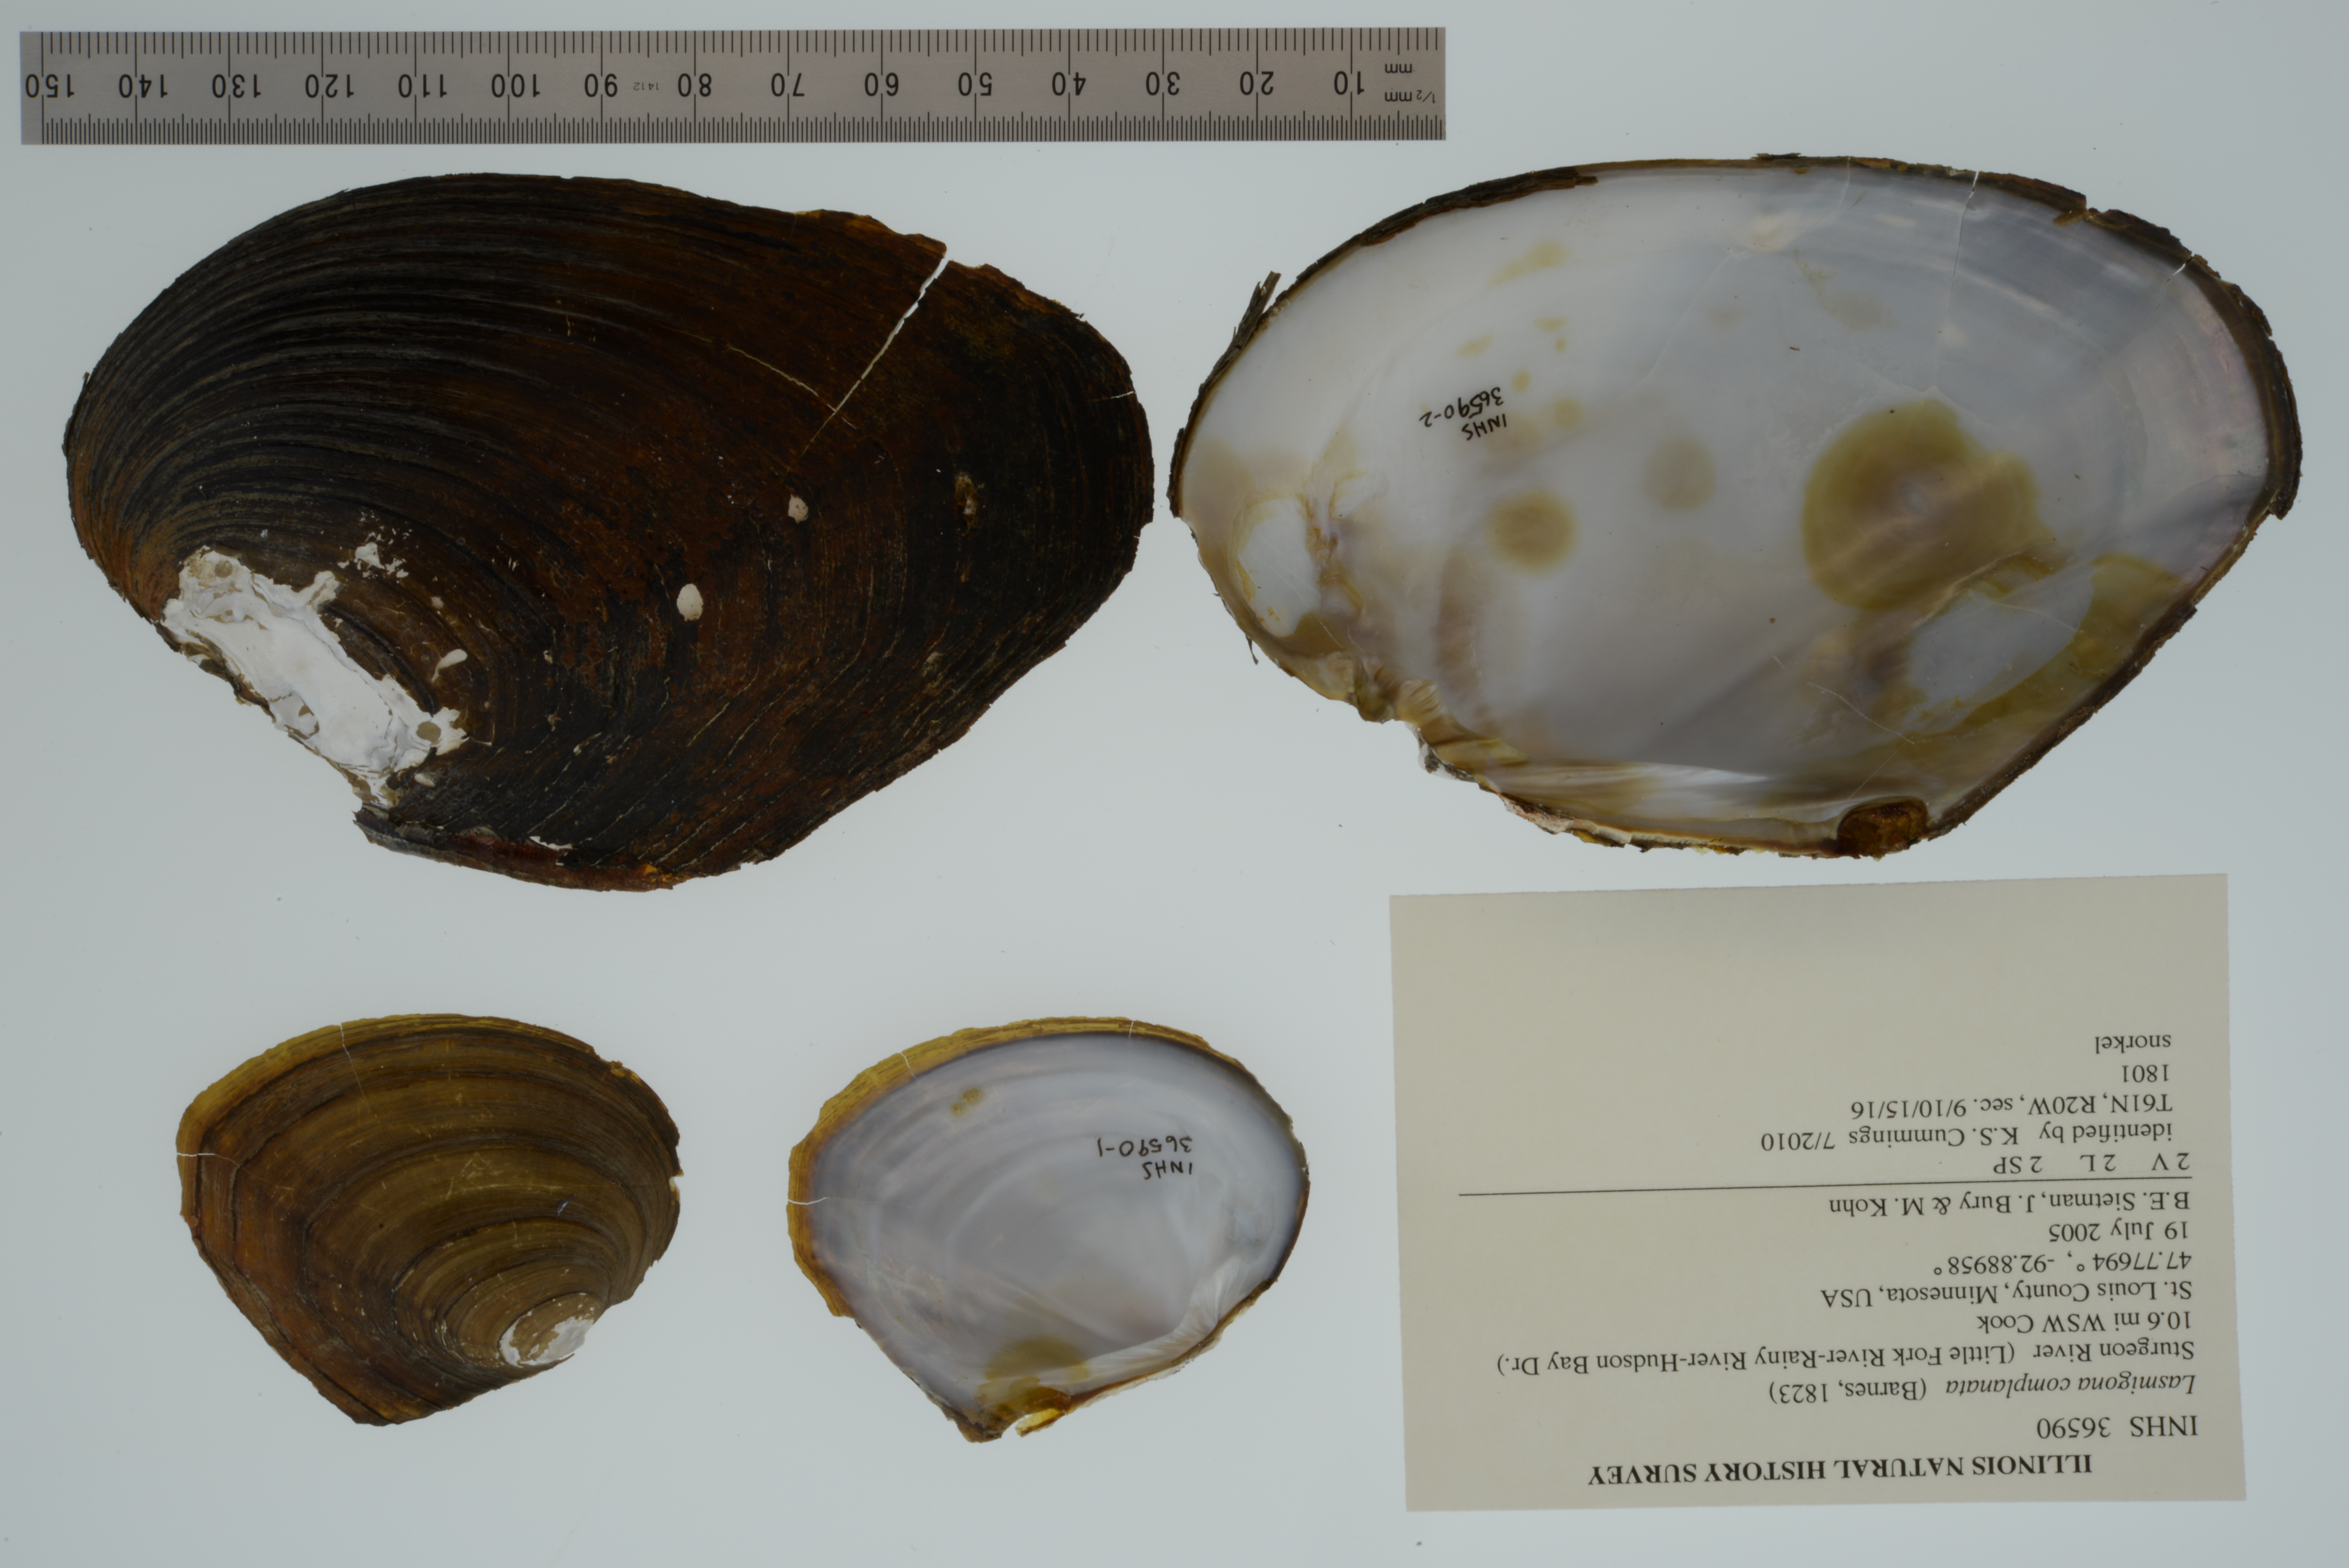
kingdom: Animalia
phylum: Mollusca
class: Bivalvia
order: Unionida
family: Unionidae
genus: Lasmigona
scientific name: Lasmigona complanata
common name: White heelsplitter
